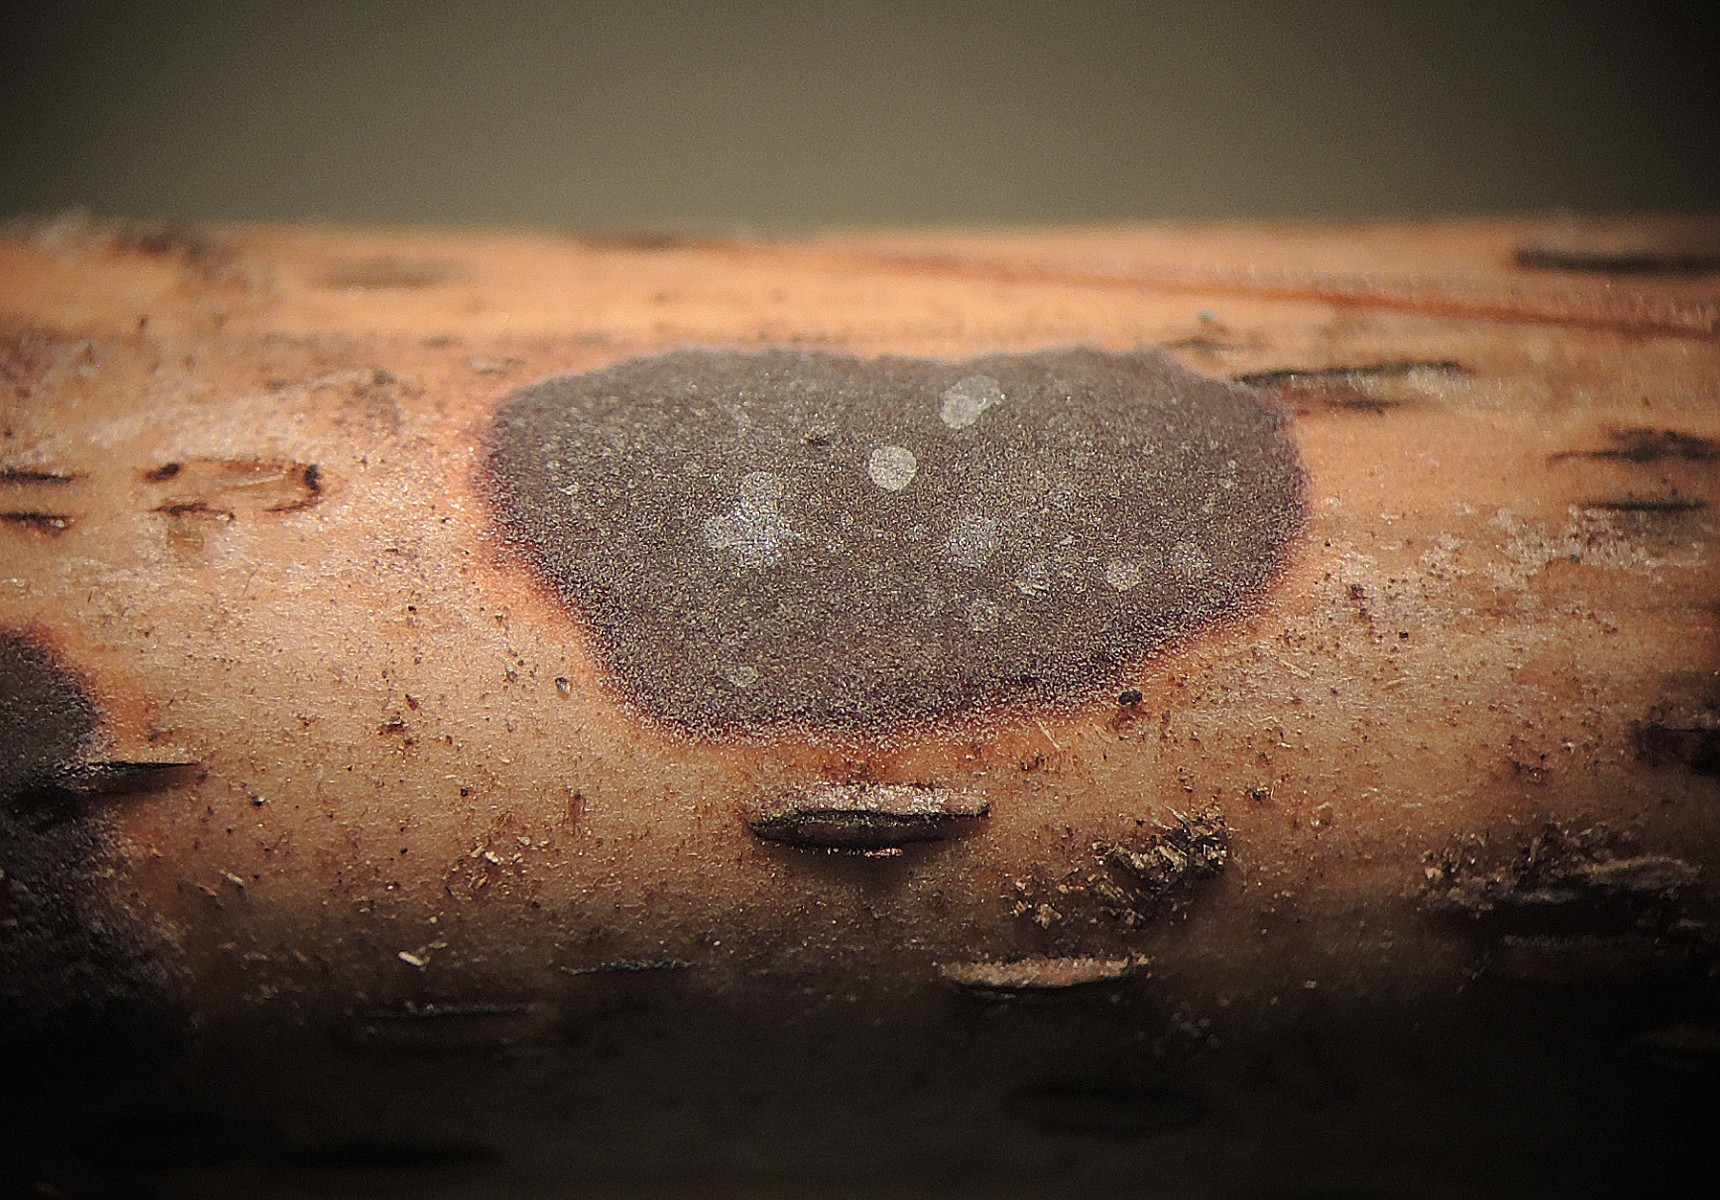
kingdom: Fungi
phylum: Basidiomycota
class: Agaricomycetes
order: Russulales
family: Peniophoraceae
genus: Peniophora
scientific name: Peniophora lycii
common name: grynet voksskind
